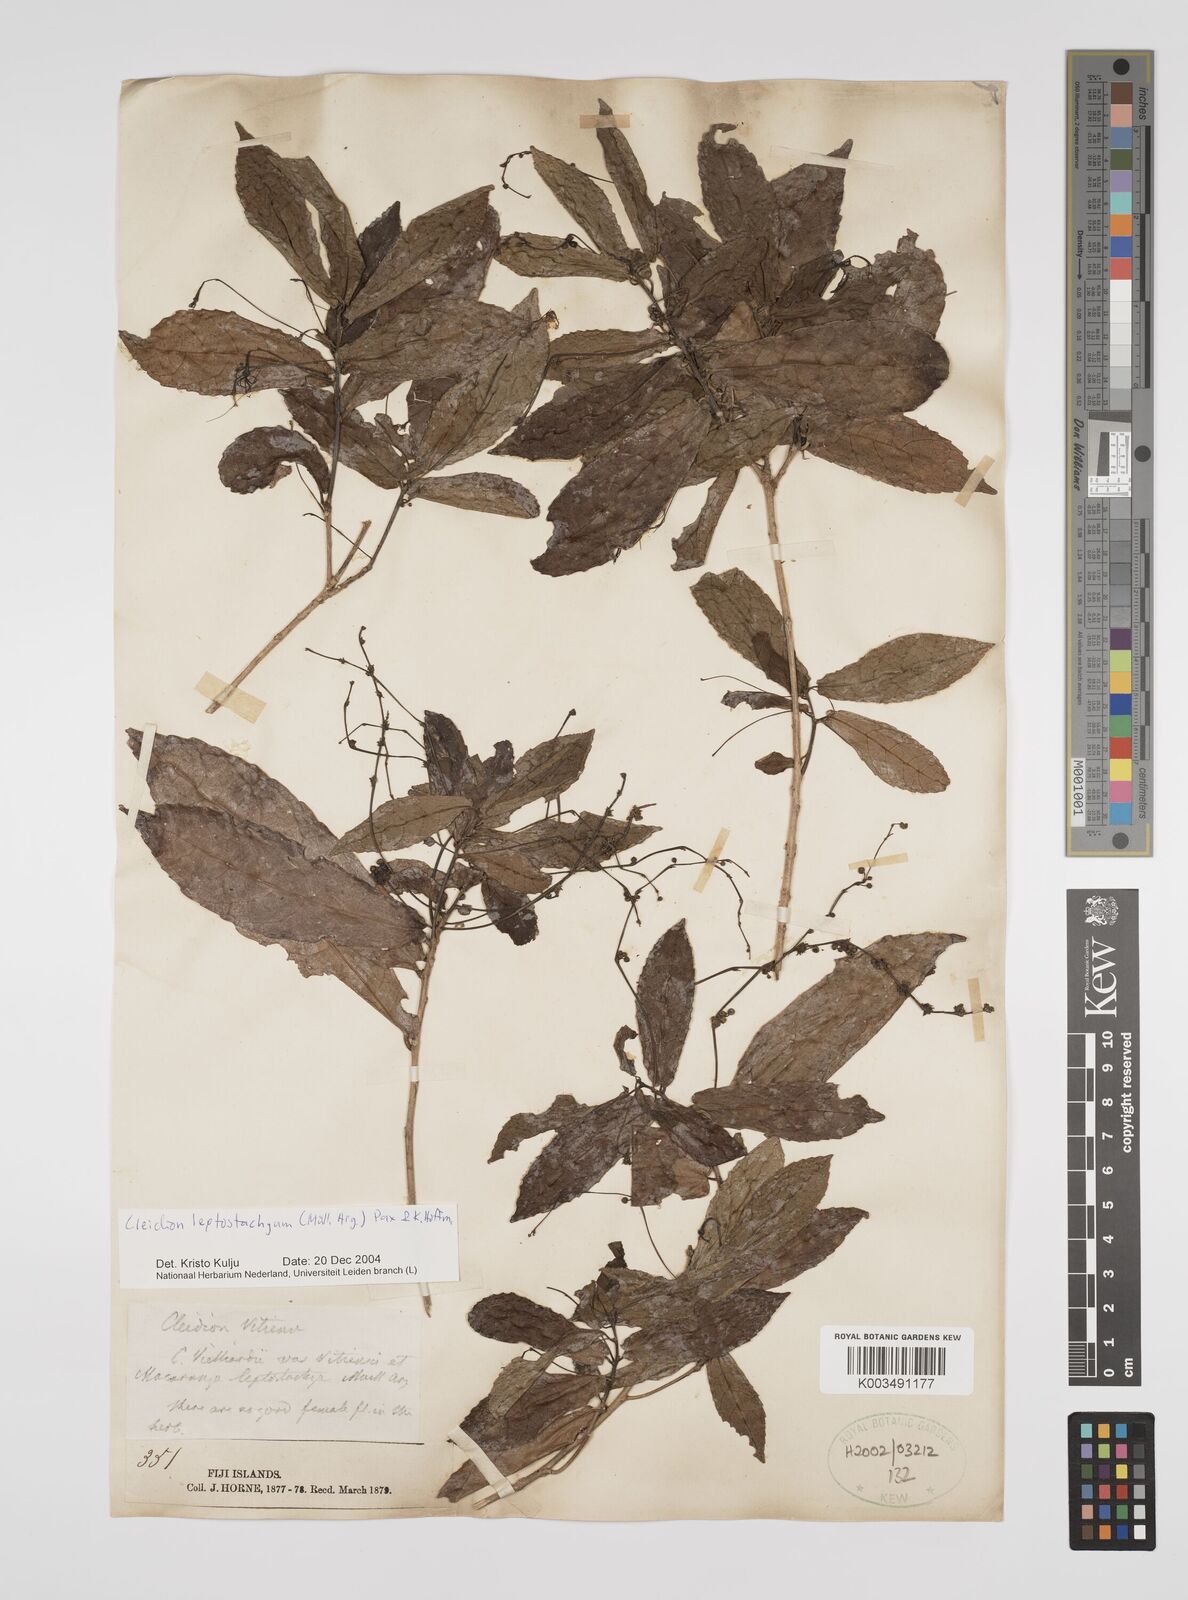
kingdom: Plantae
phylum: Tracheophyta
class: Magnoliopsida
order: Malpighiales
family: Euphorbiaceae
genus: Cleidion
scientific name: Cleidion leptostachyum
